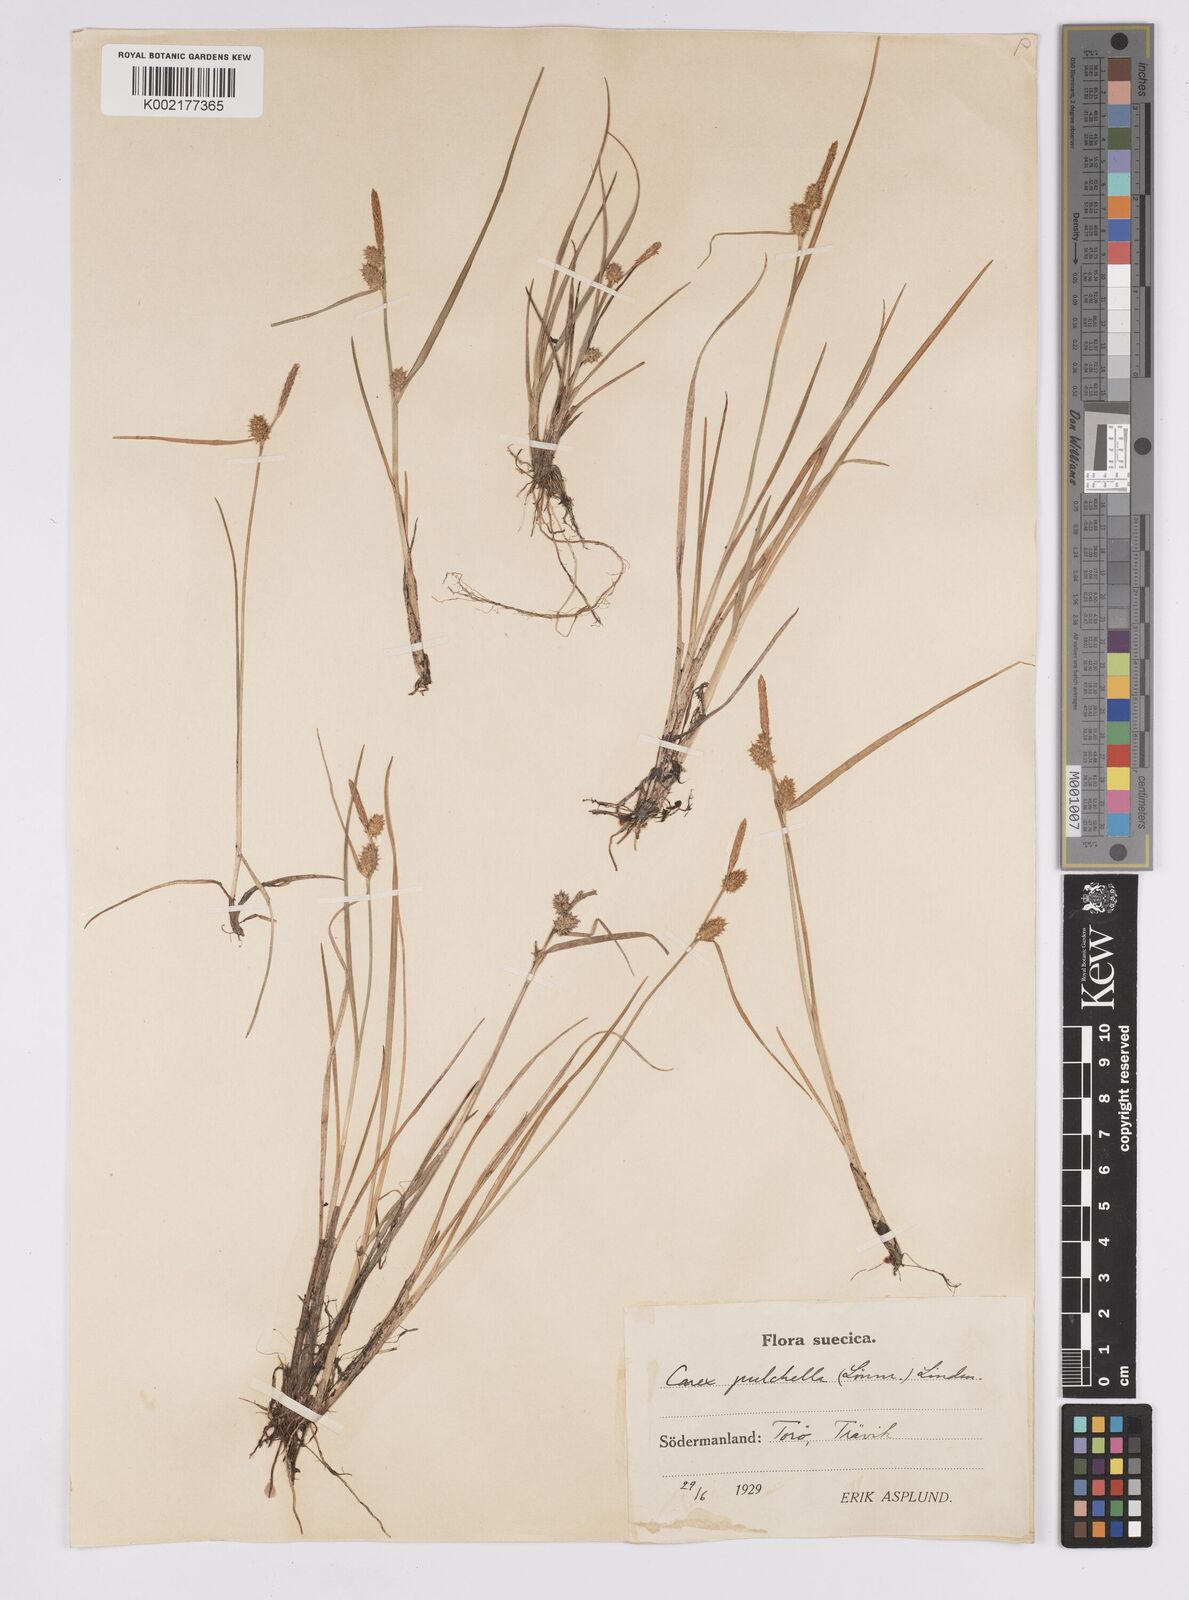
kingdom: Plantae
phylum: Tracheophyta
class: Liliopsida
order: Poales
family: Cyperaceae
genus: Carex
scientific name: Carex hostiana
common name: Tawny sedge
